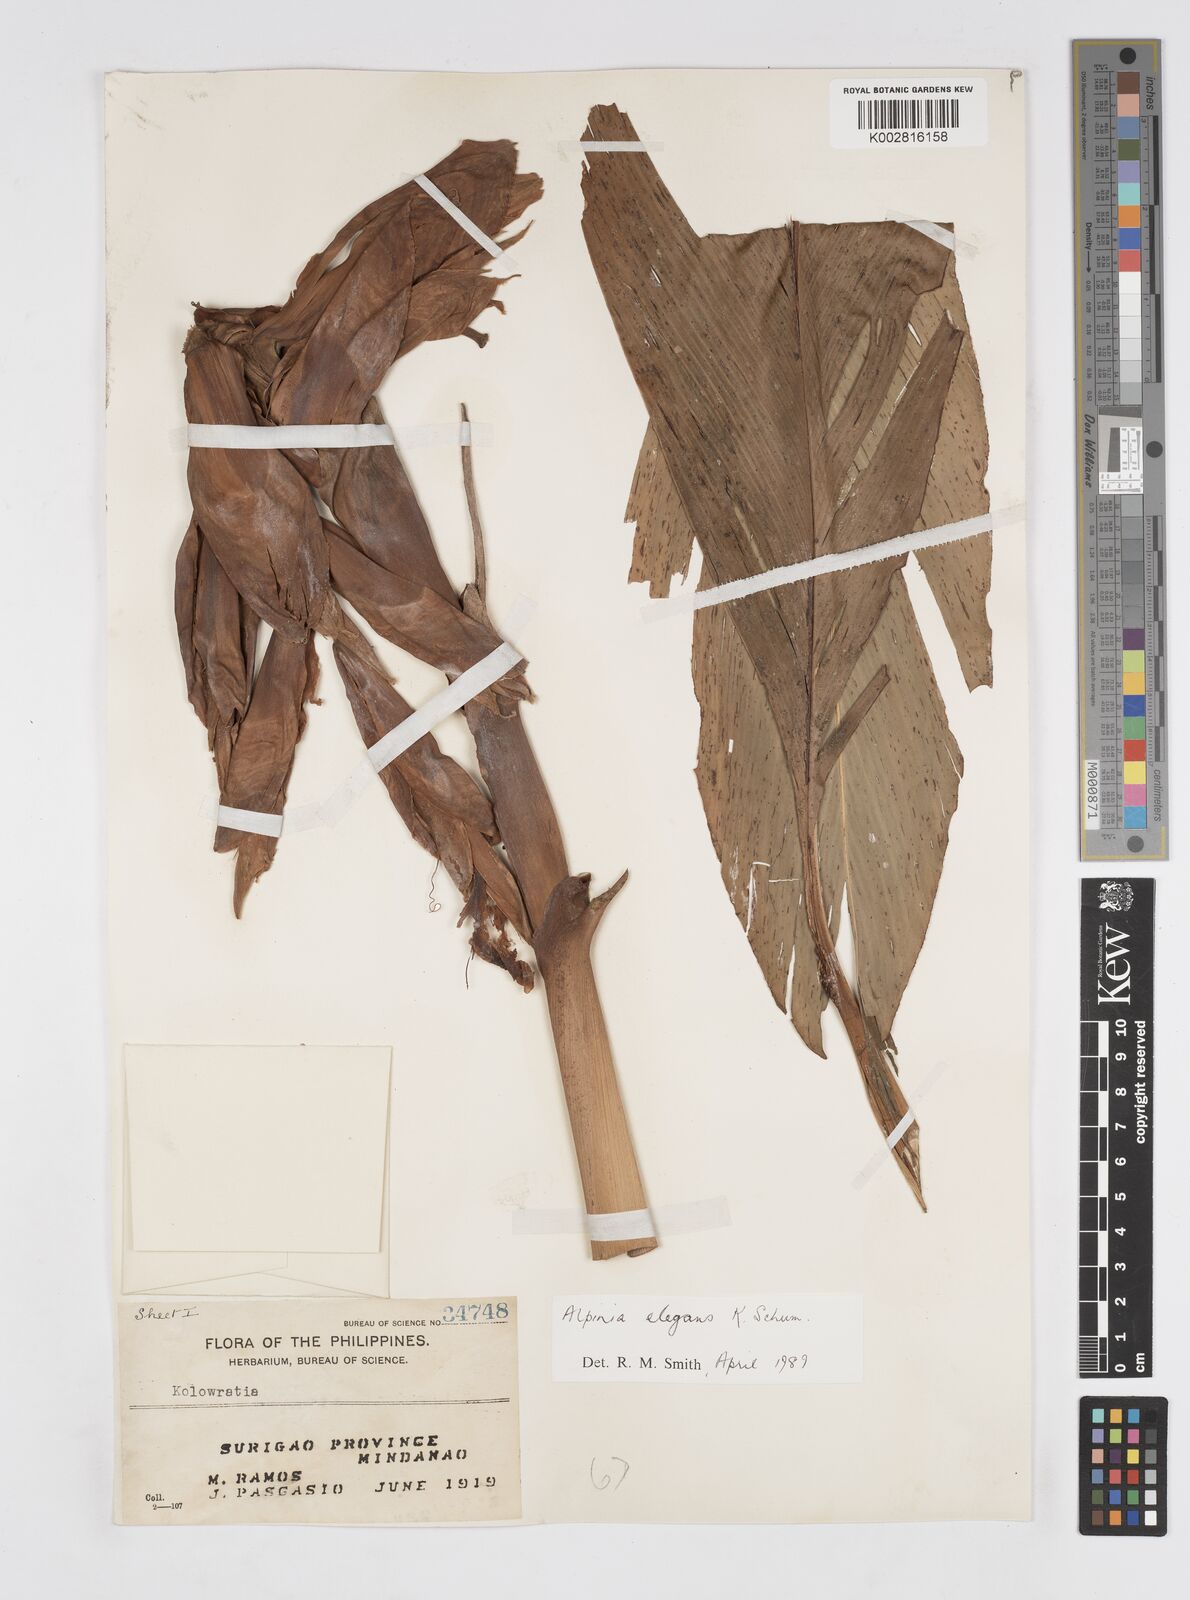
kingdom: Plantae
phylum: Tracheophyta
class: Liliopsida
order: Zingiberales
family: Zingiberaceae
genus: Alpinia
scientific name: Alpinia elegans
